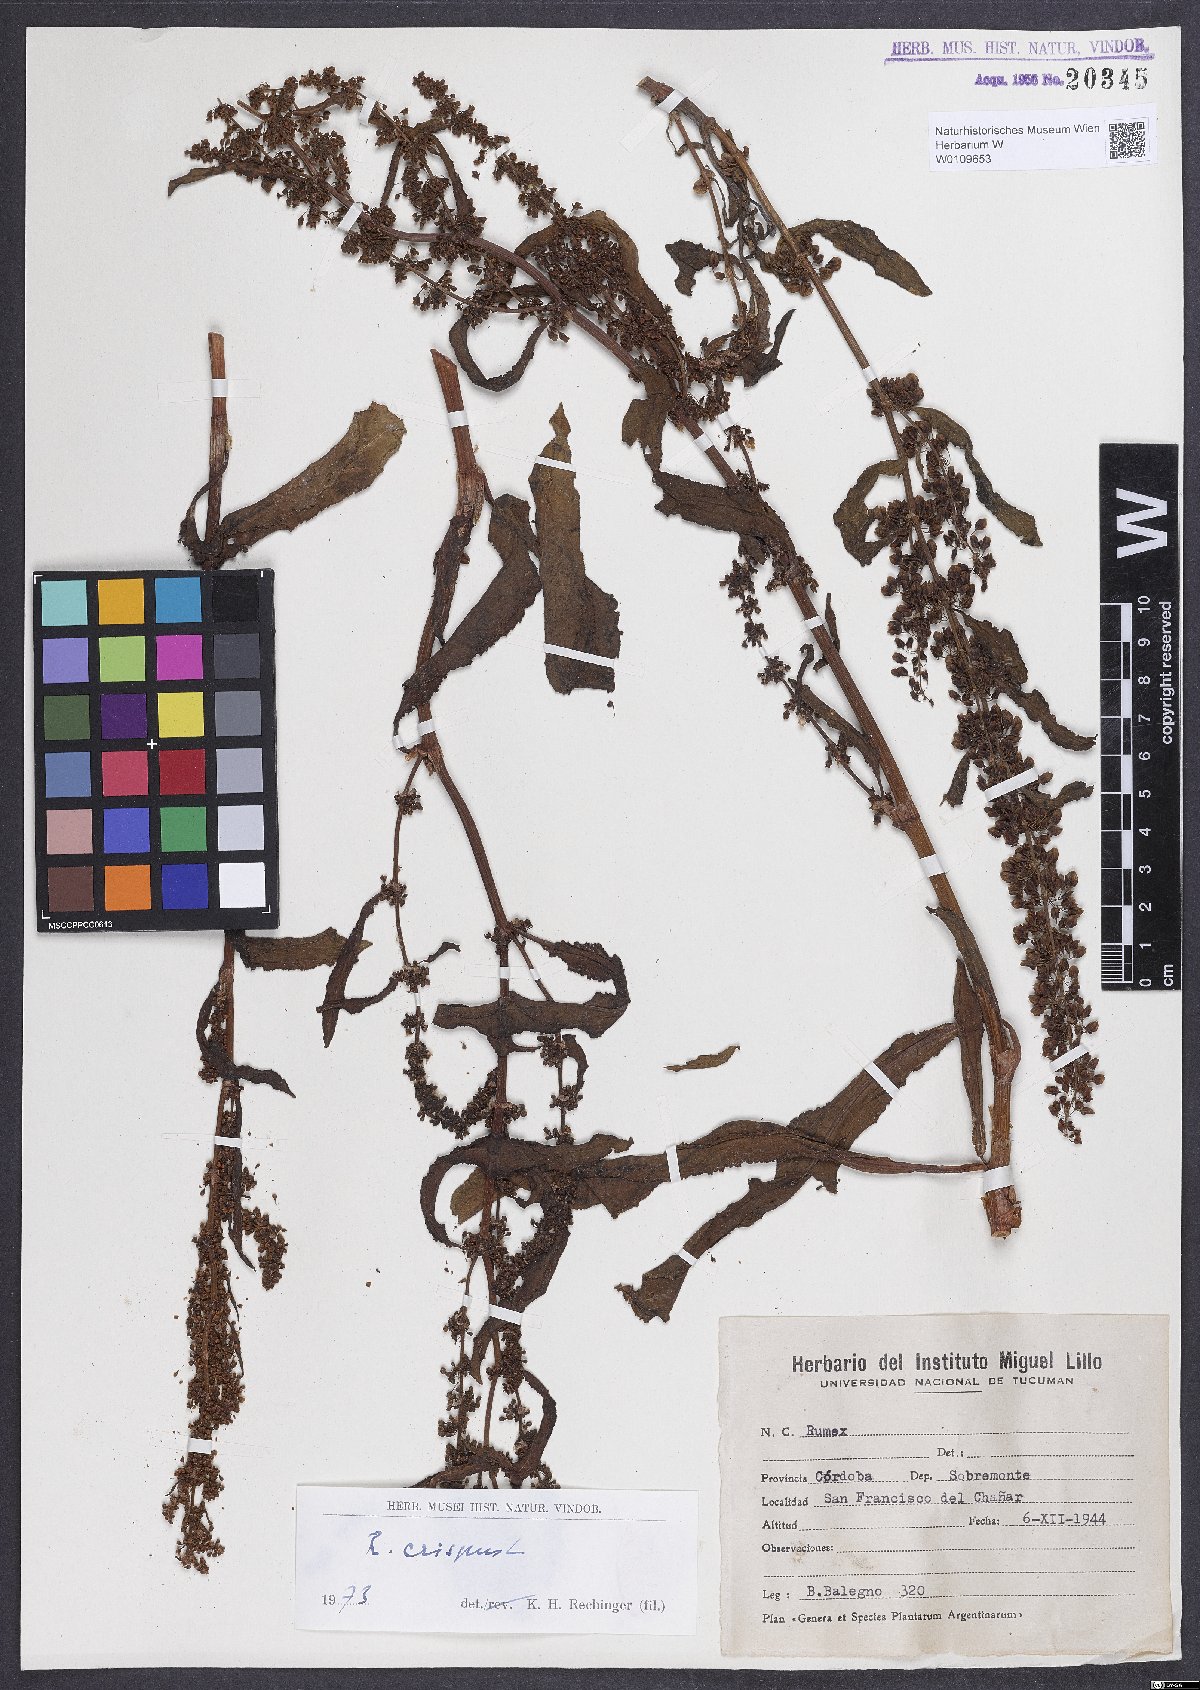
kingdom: Plantae
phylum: Tracheophyta
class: Magnoliopsida
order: Caryophyllales
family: Polygonaceae
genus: Rumex
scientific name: Rumex crispus
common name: Curled dock
